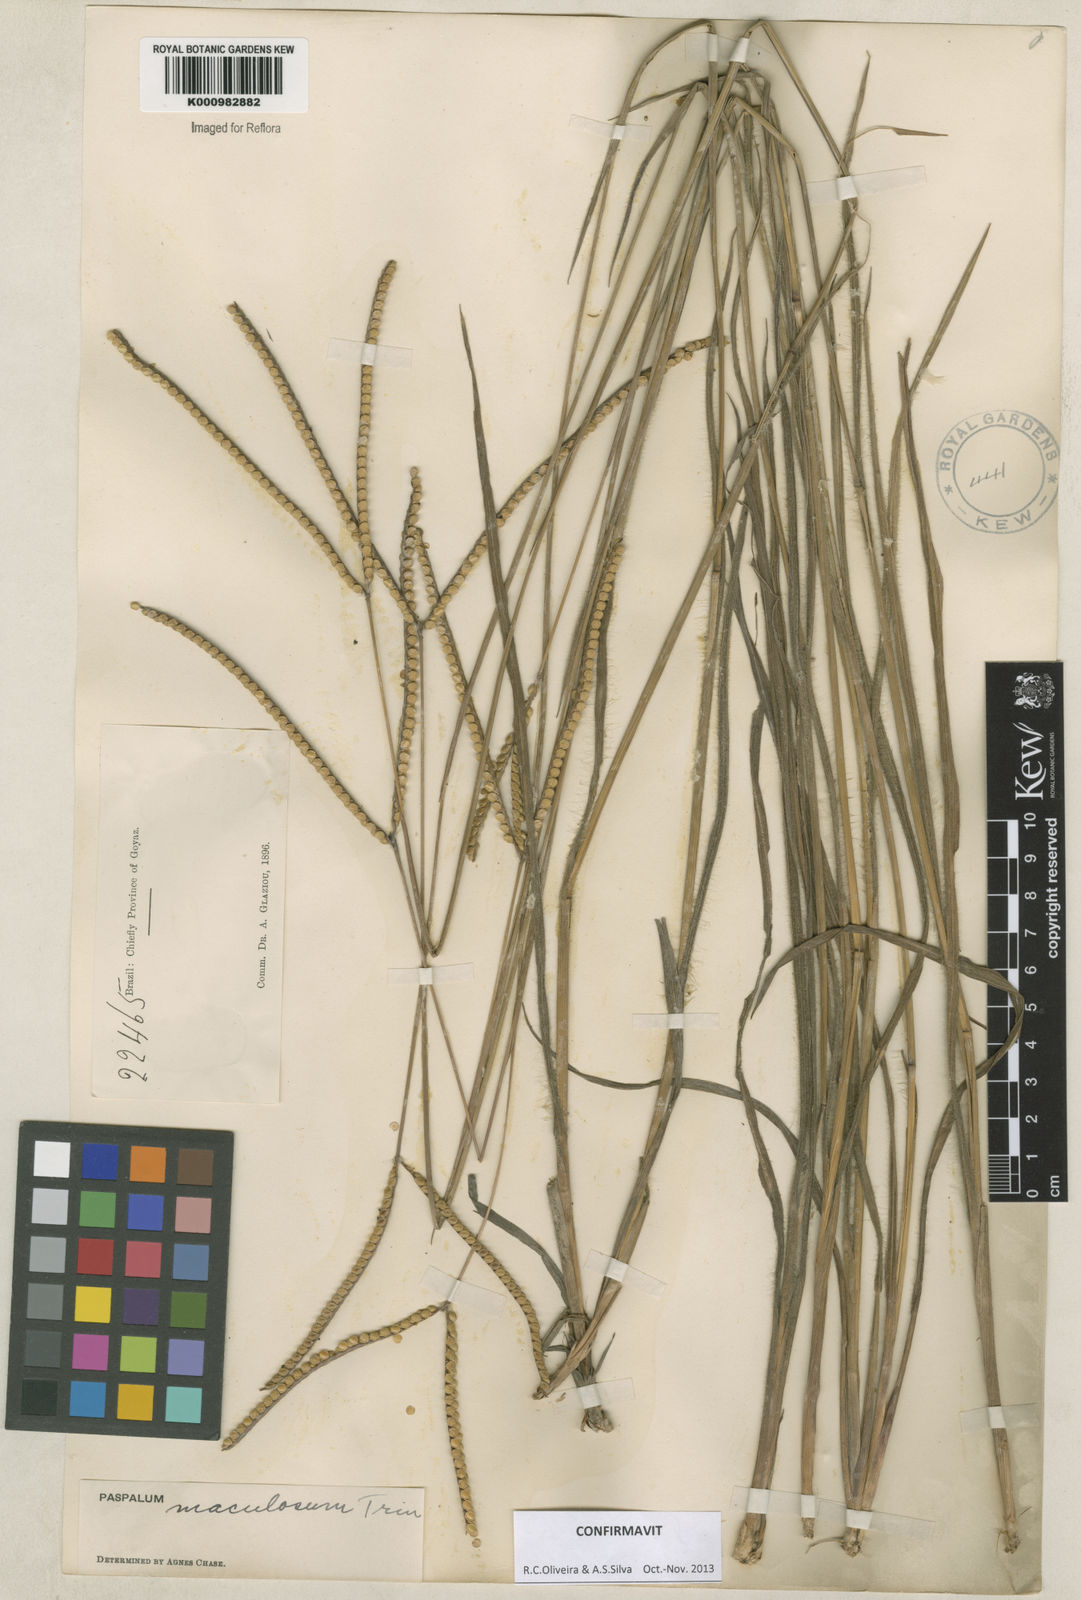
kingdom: Plantae
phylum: Tracheophyta
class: Liliopsida
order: Poales
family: Poaceae
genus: Paspalum
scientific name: Paspalum maculosum
